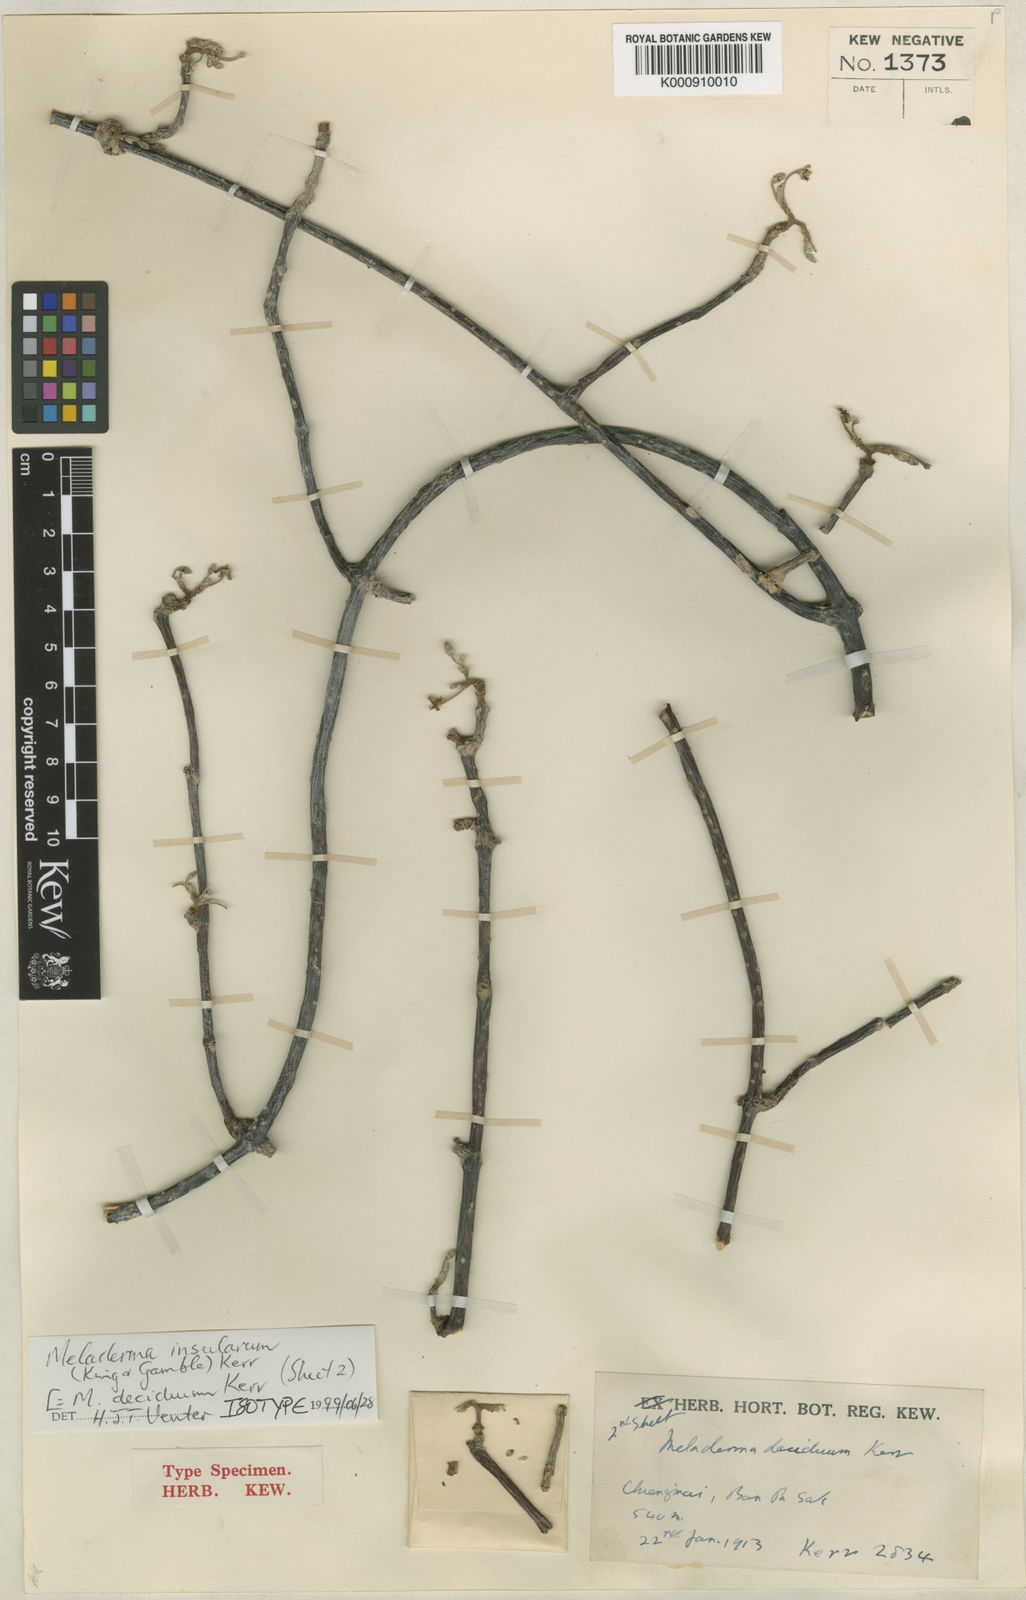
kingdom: Plantae
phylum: Tracheophyta
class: Magnoliopsida
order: Gentianales
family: Apocynaceae
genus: Finlaysonia
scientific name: Finlaysonia decidua
